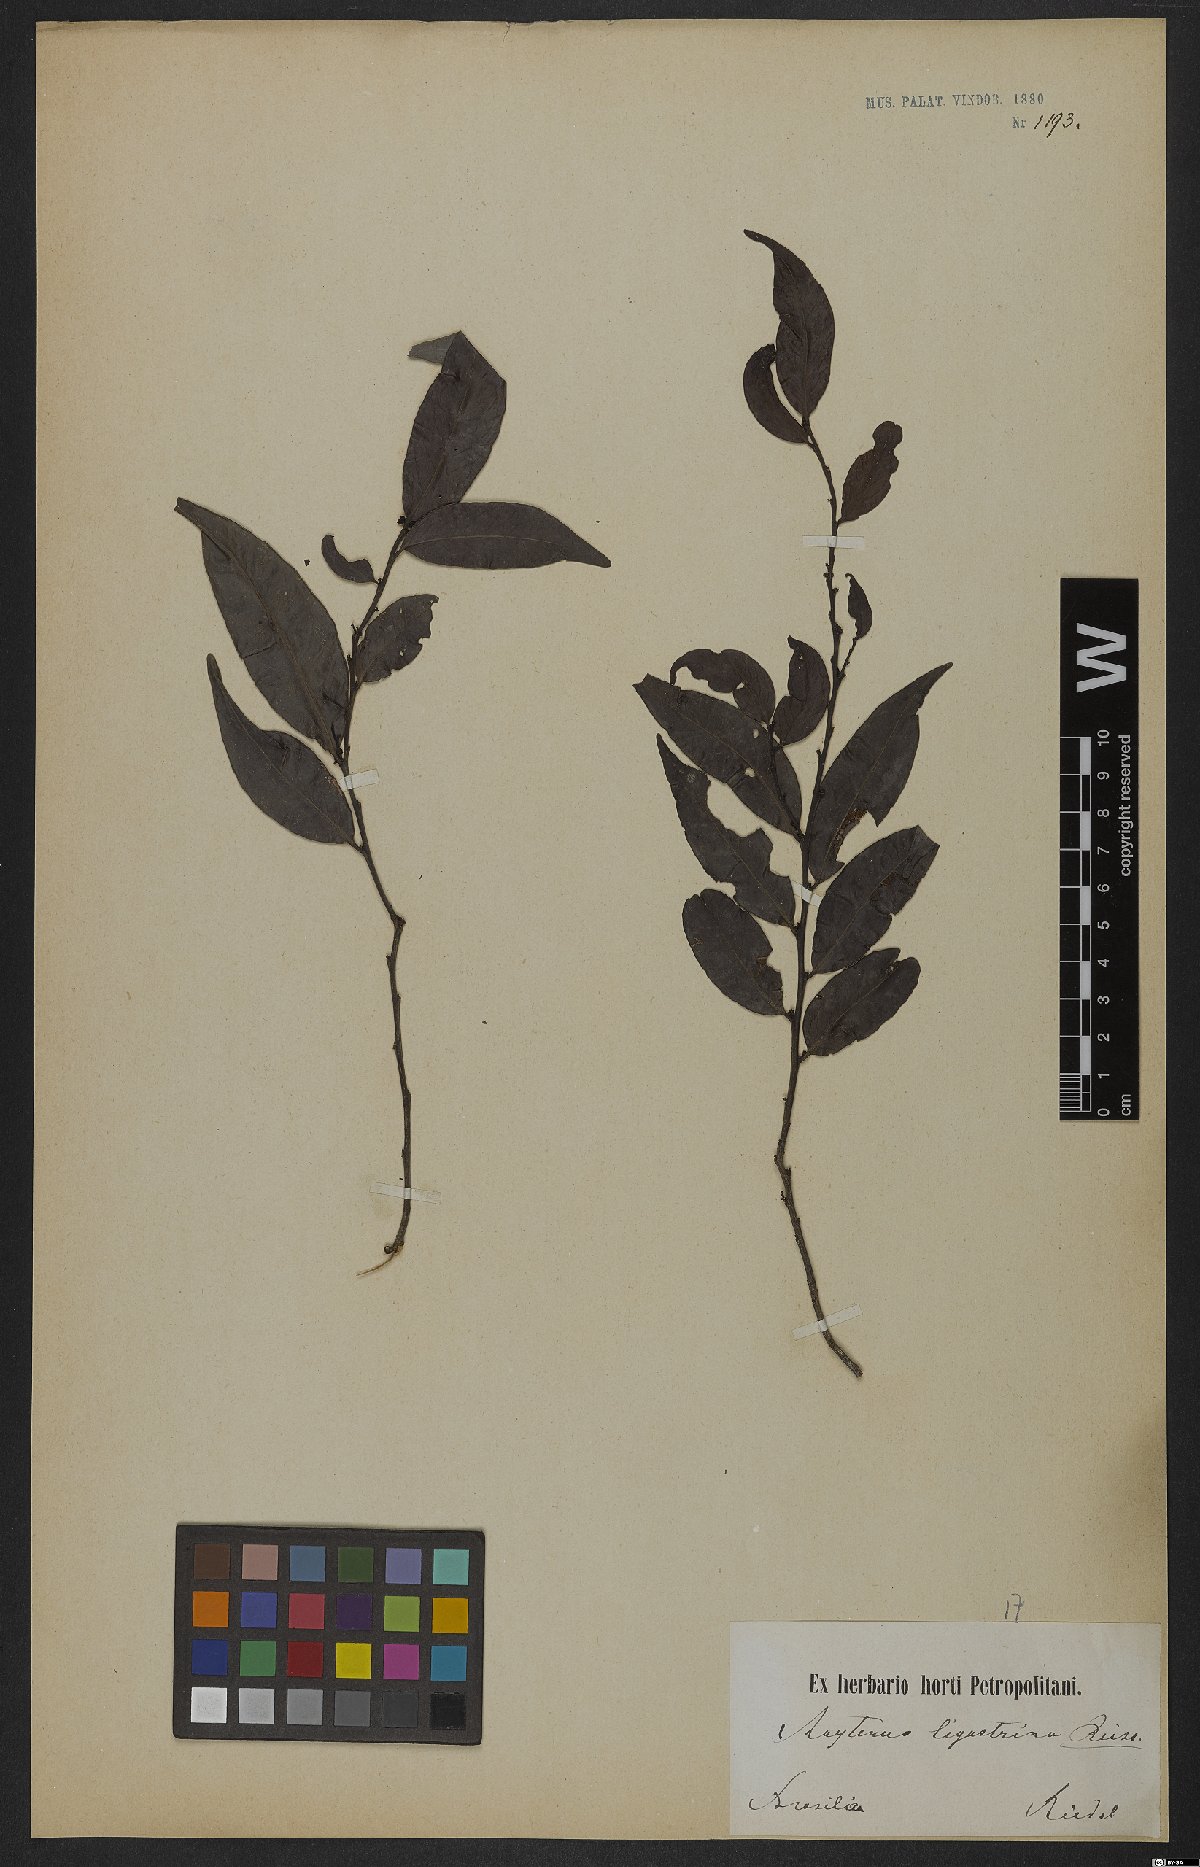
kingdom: Plantae
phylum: Tracheophyta
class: Magnoliopsida
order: Celastrales
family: Celastraceae
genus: Monteverdia
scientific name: Monteverdia brasiliensis
